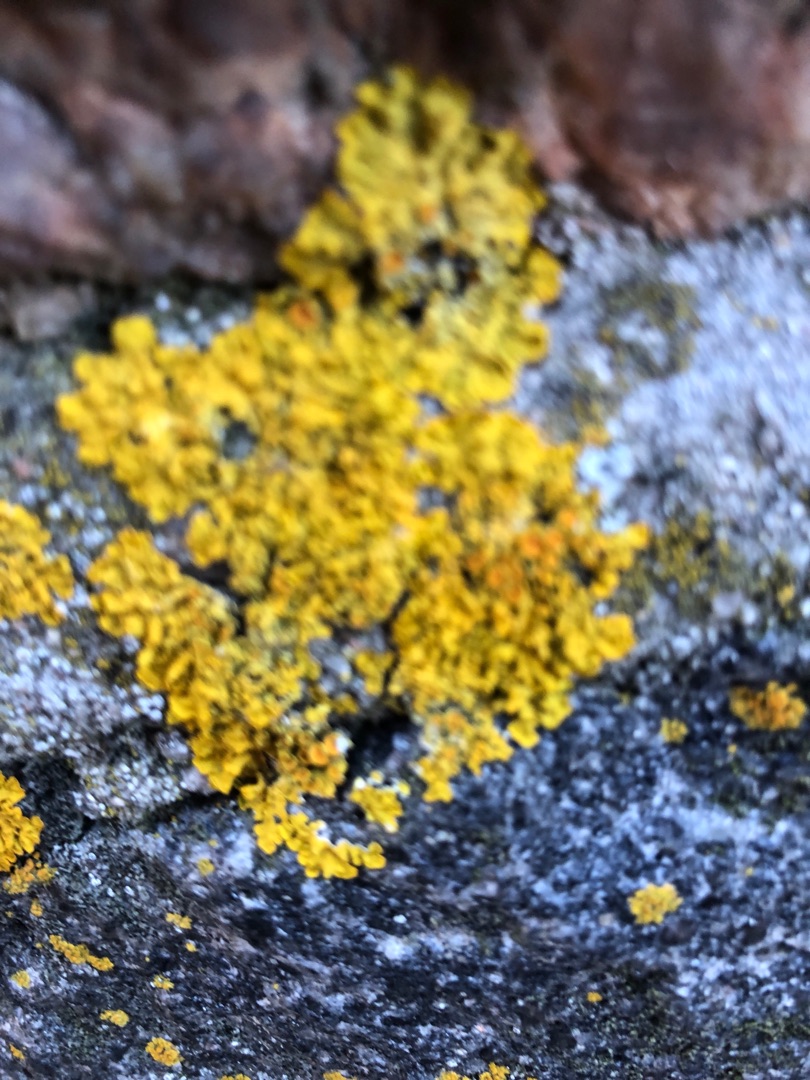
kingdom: Fungi
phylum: Ascomycota
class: Lecanoromycetes
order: Teloschistales
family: Teloschistaceae
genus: Xanthoria
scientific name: Xanthoria parietina
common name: Almindelig væggelav
